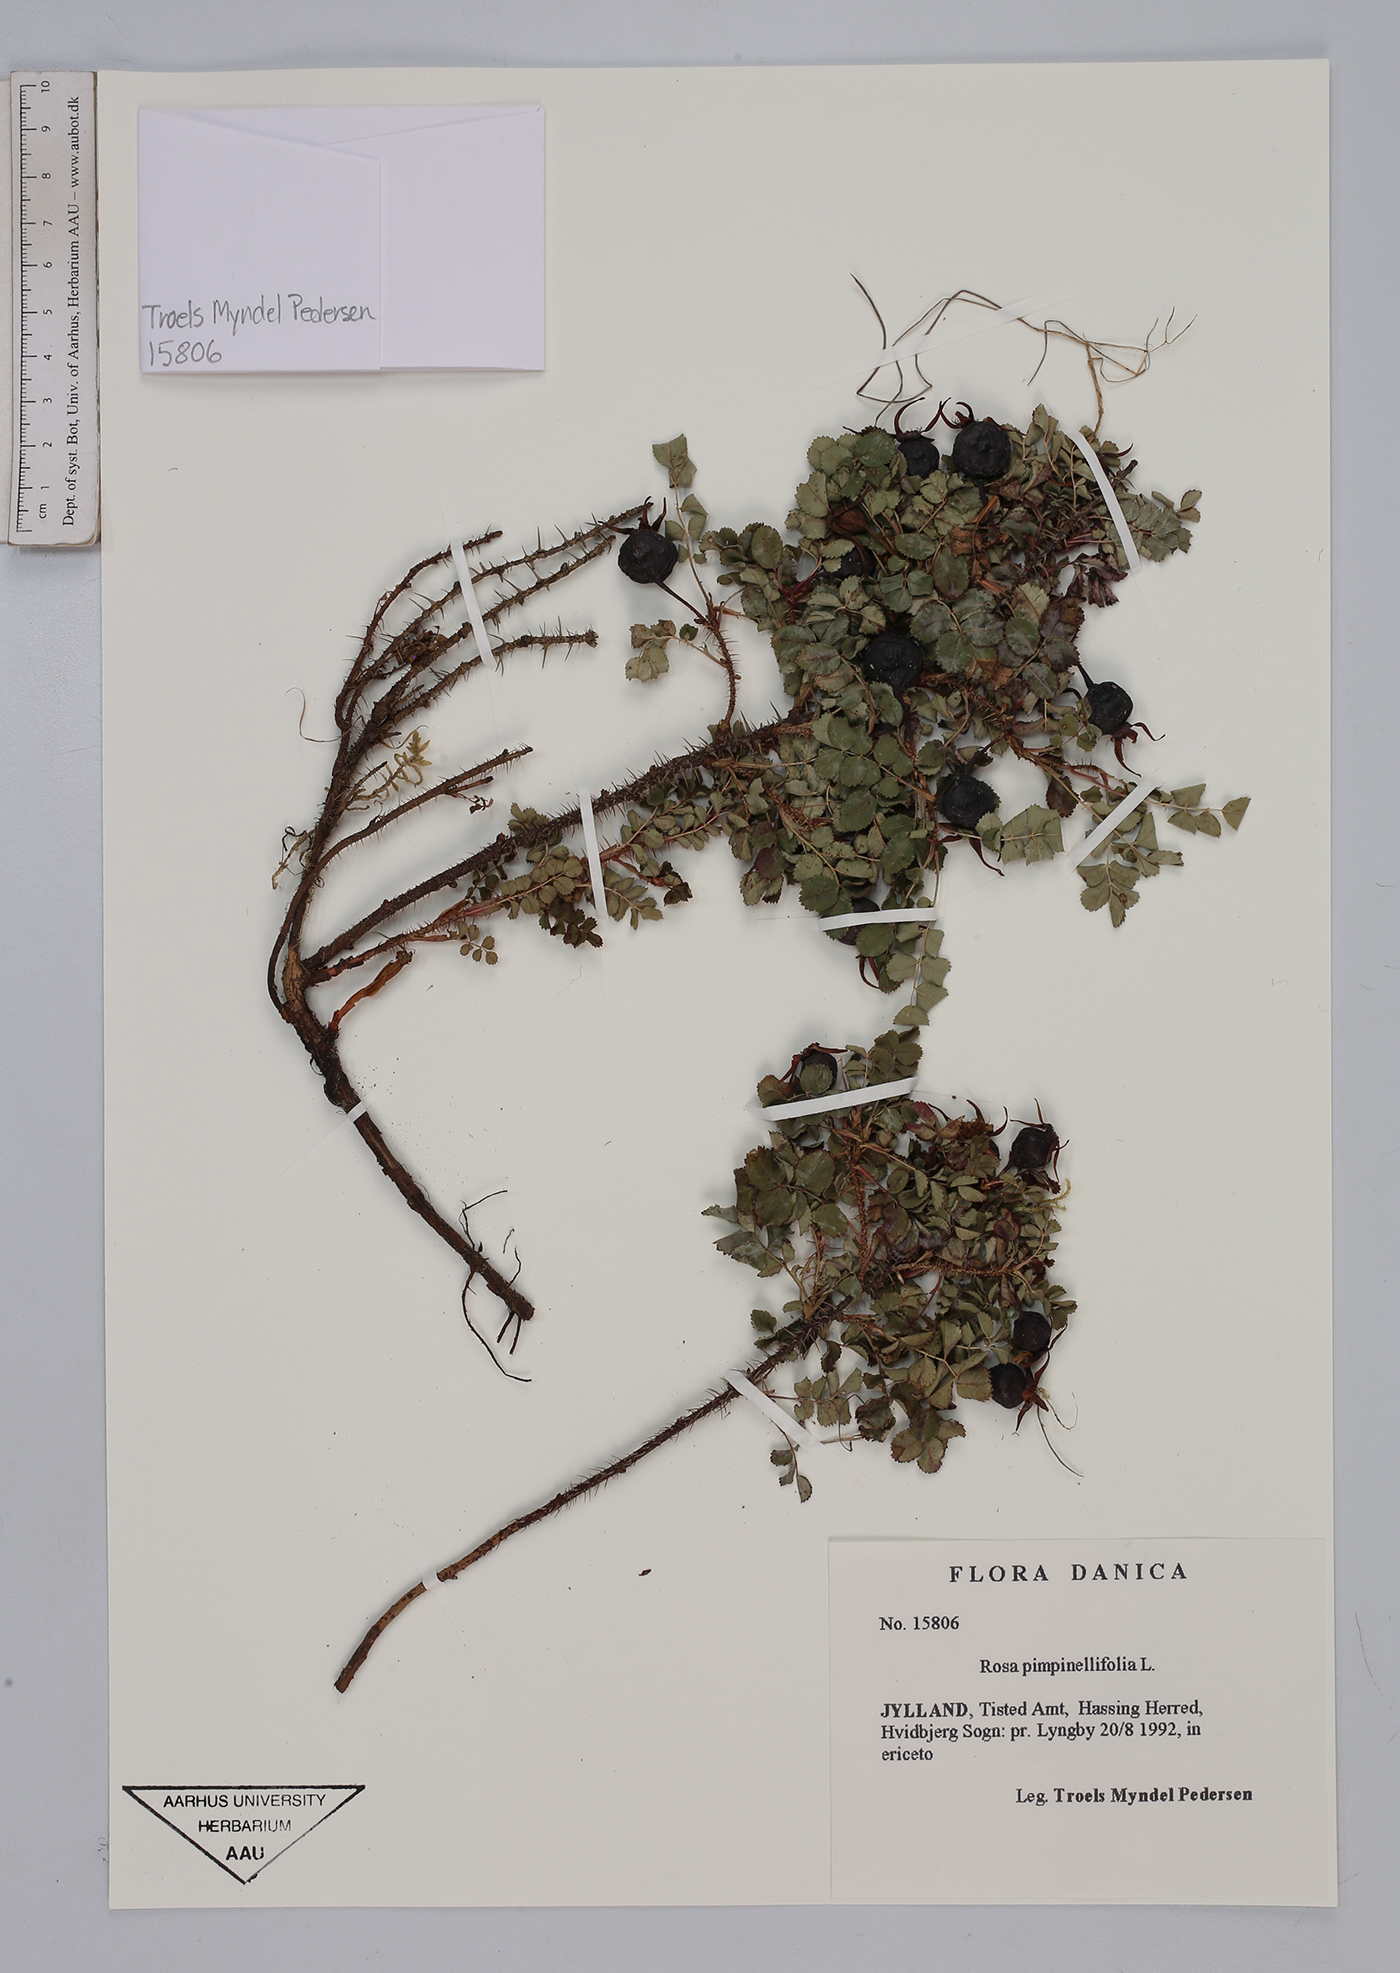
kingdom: Plantae
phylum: Tracheophyta
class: Magnoliopsida
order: Rosales
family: Rosaceae
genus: Rosa
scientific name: Rosa spinosissima
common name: Burnet rose
